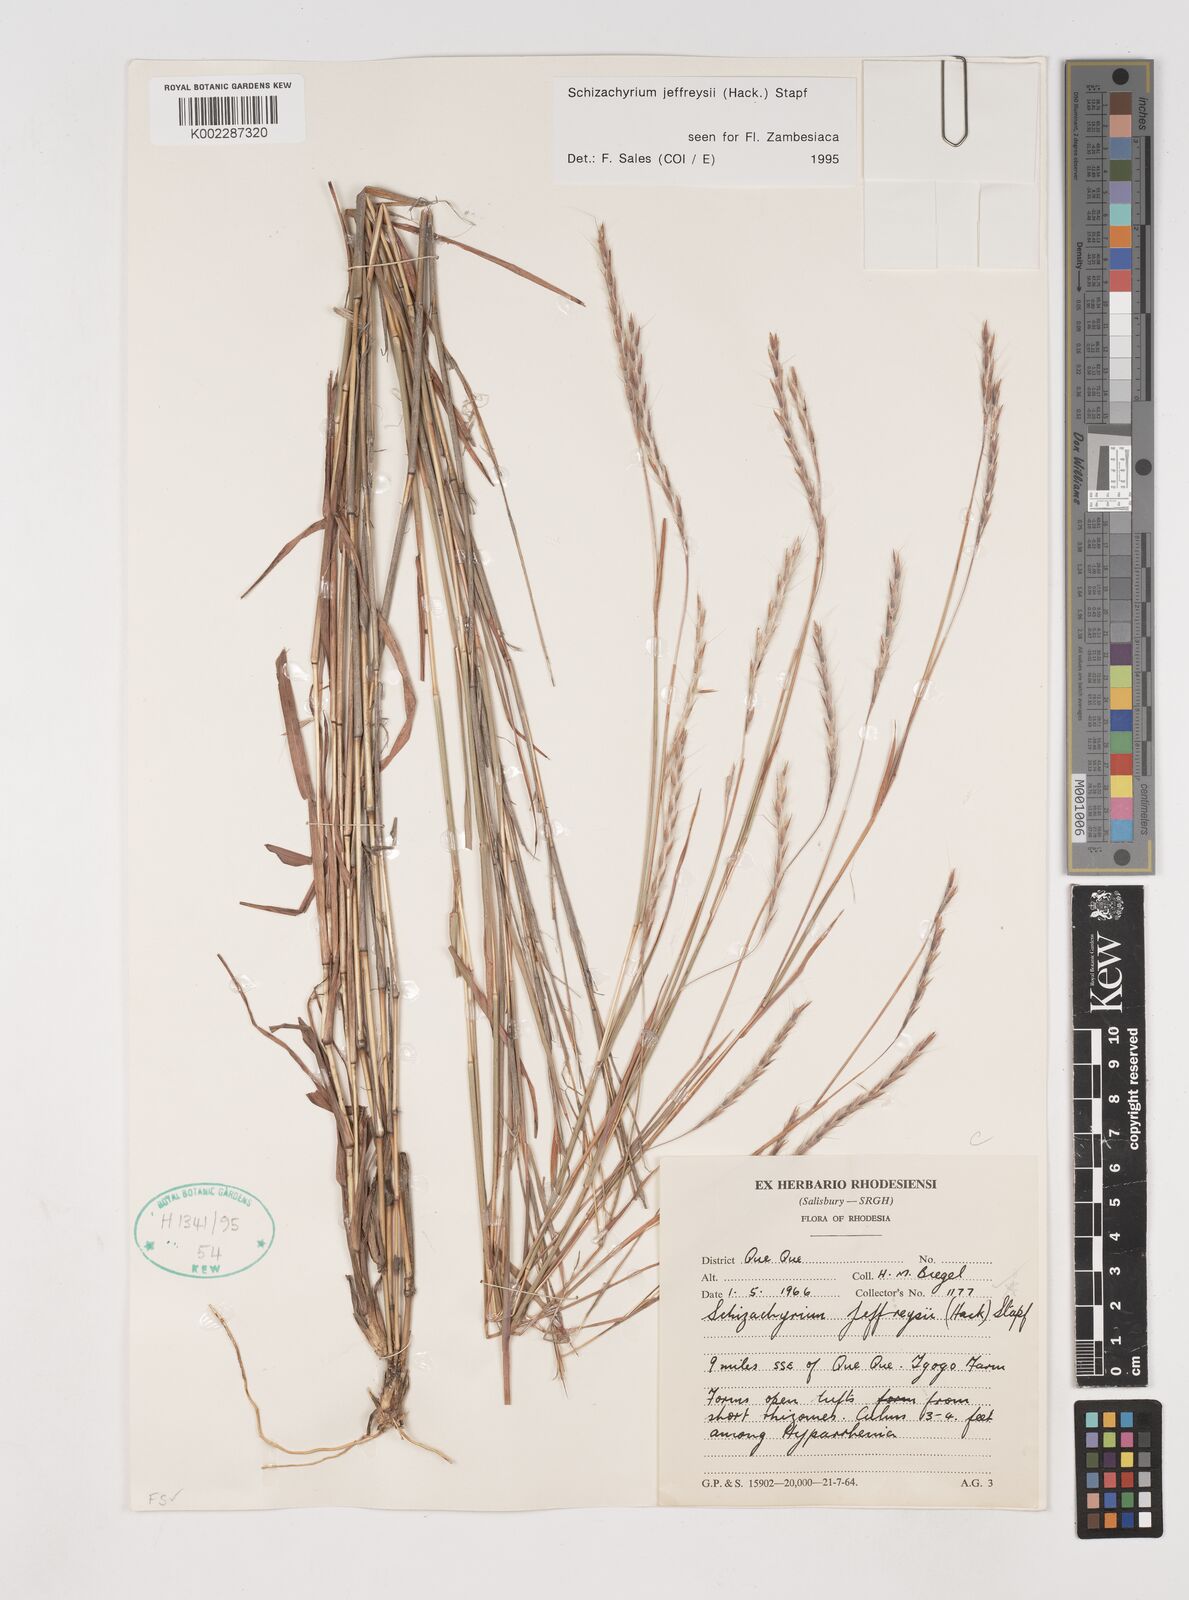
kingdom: Plantae
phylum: Tracheophyta
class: Liliopsida
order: Poales
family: Poaceae
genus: Schizachyrium
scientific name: Schizachyrium jeffreysii
